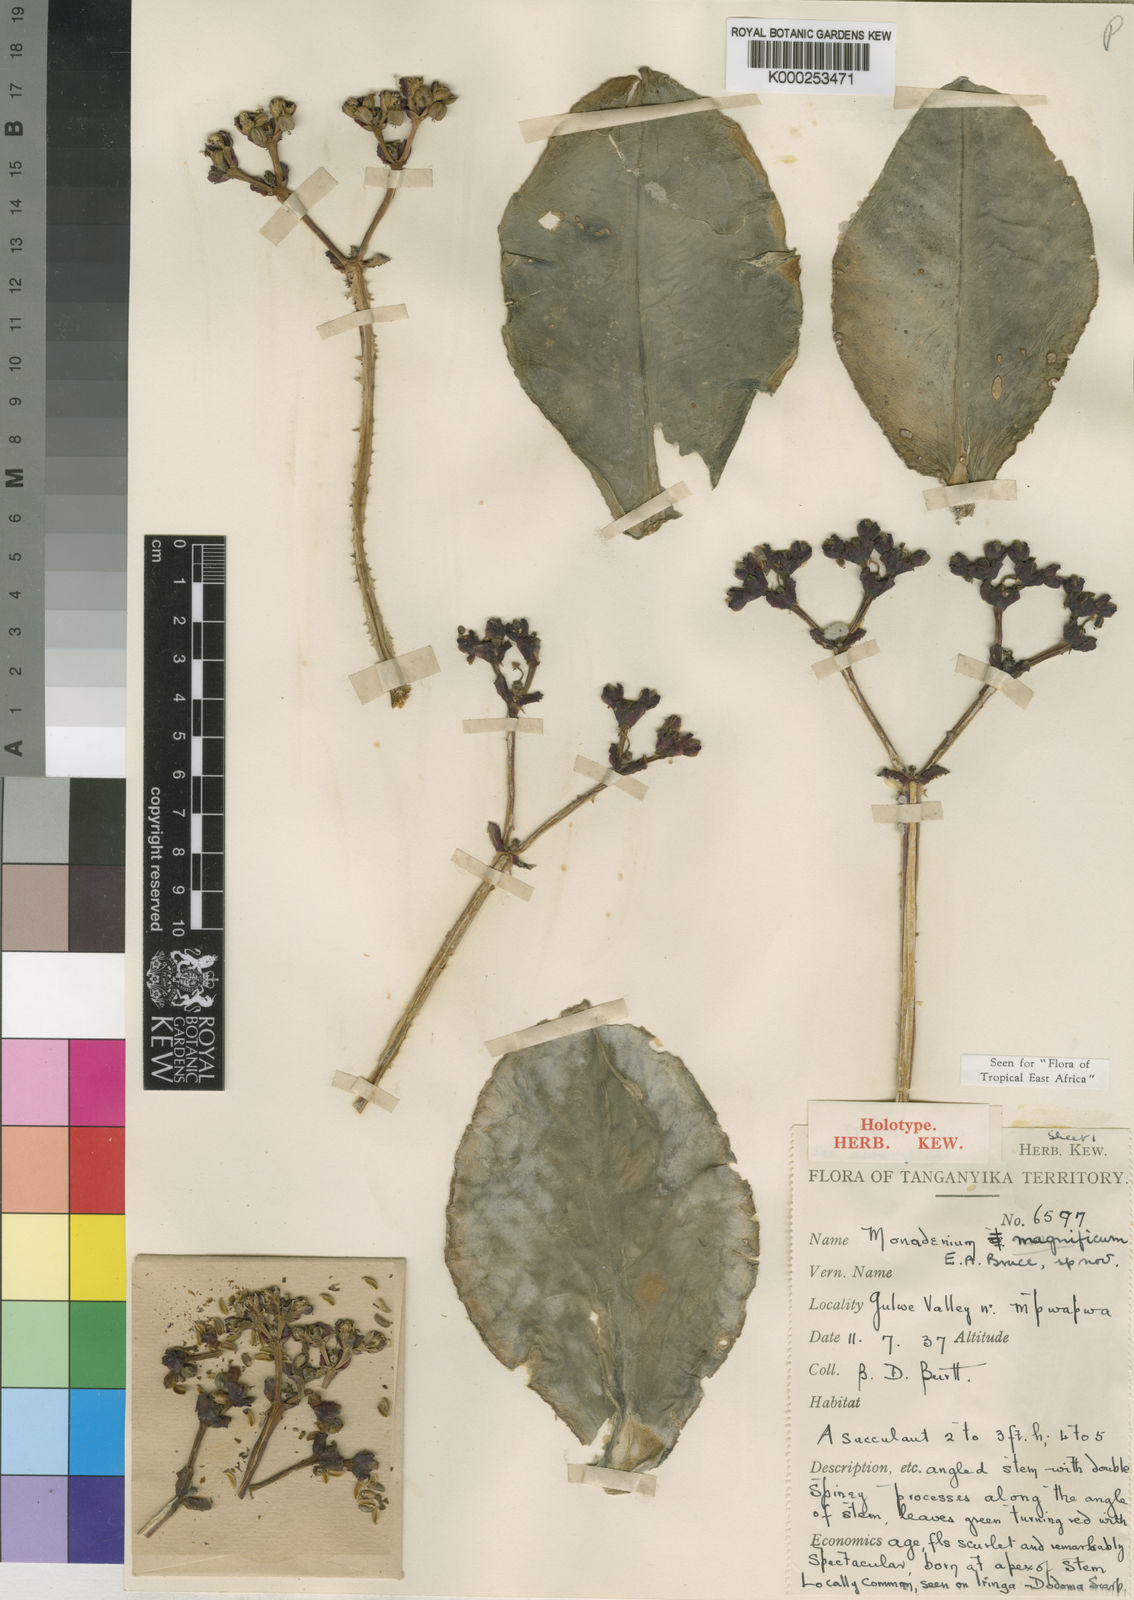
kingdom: Plantae
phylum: Tracheophyta
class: Magnoliopsida
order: Malpighiales
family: Euphorbiaceae
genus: Euphorbia
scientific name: Euphorbia magnifica
